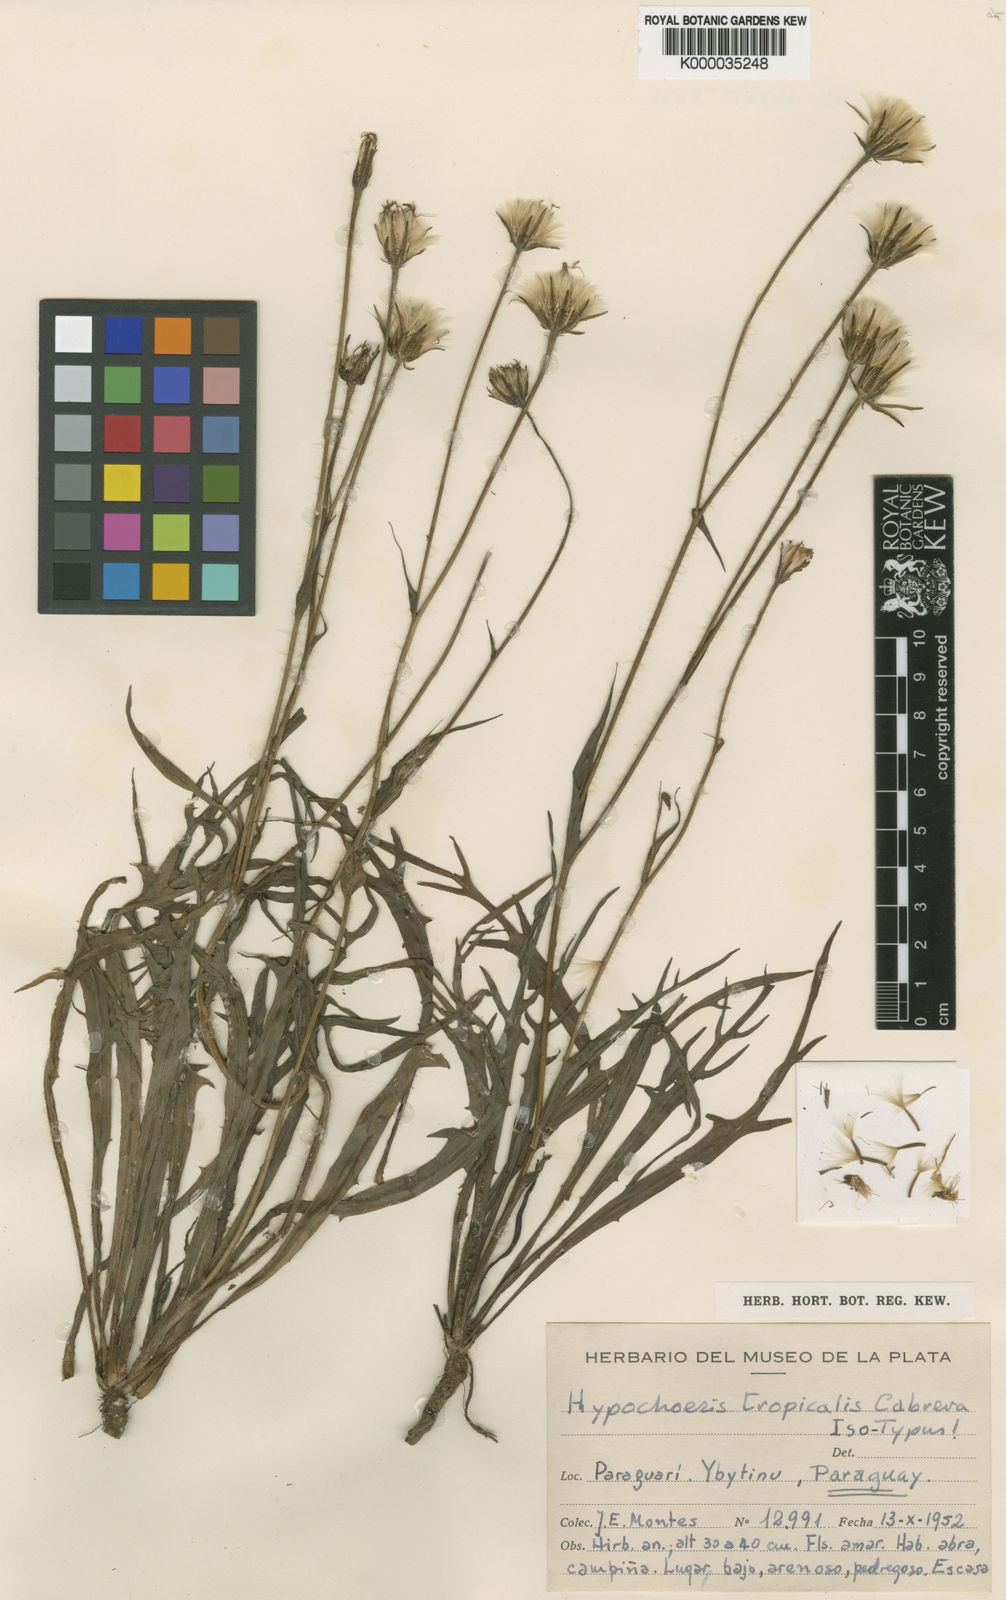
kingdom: Plantae
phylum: Tracheophyta
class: Magnoliopsida
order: Asterales
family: Asteraceae
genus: Hypochaeris
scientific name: Hypochaeris tropicalis
